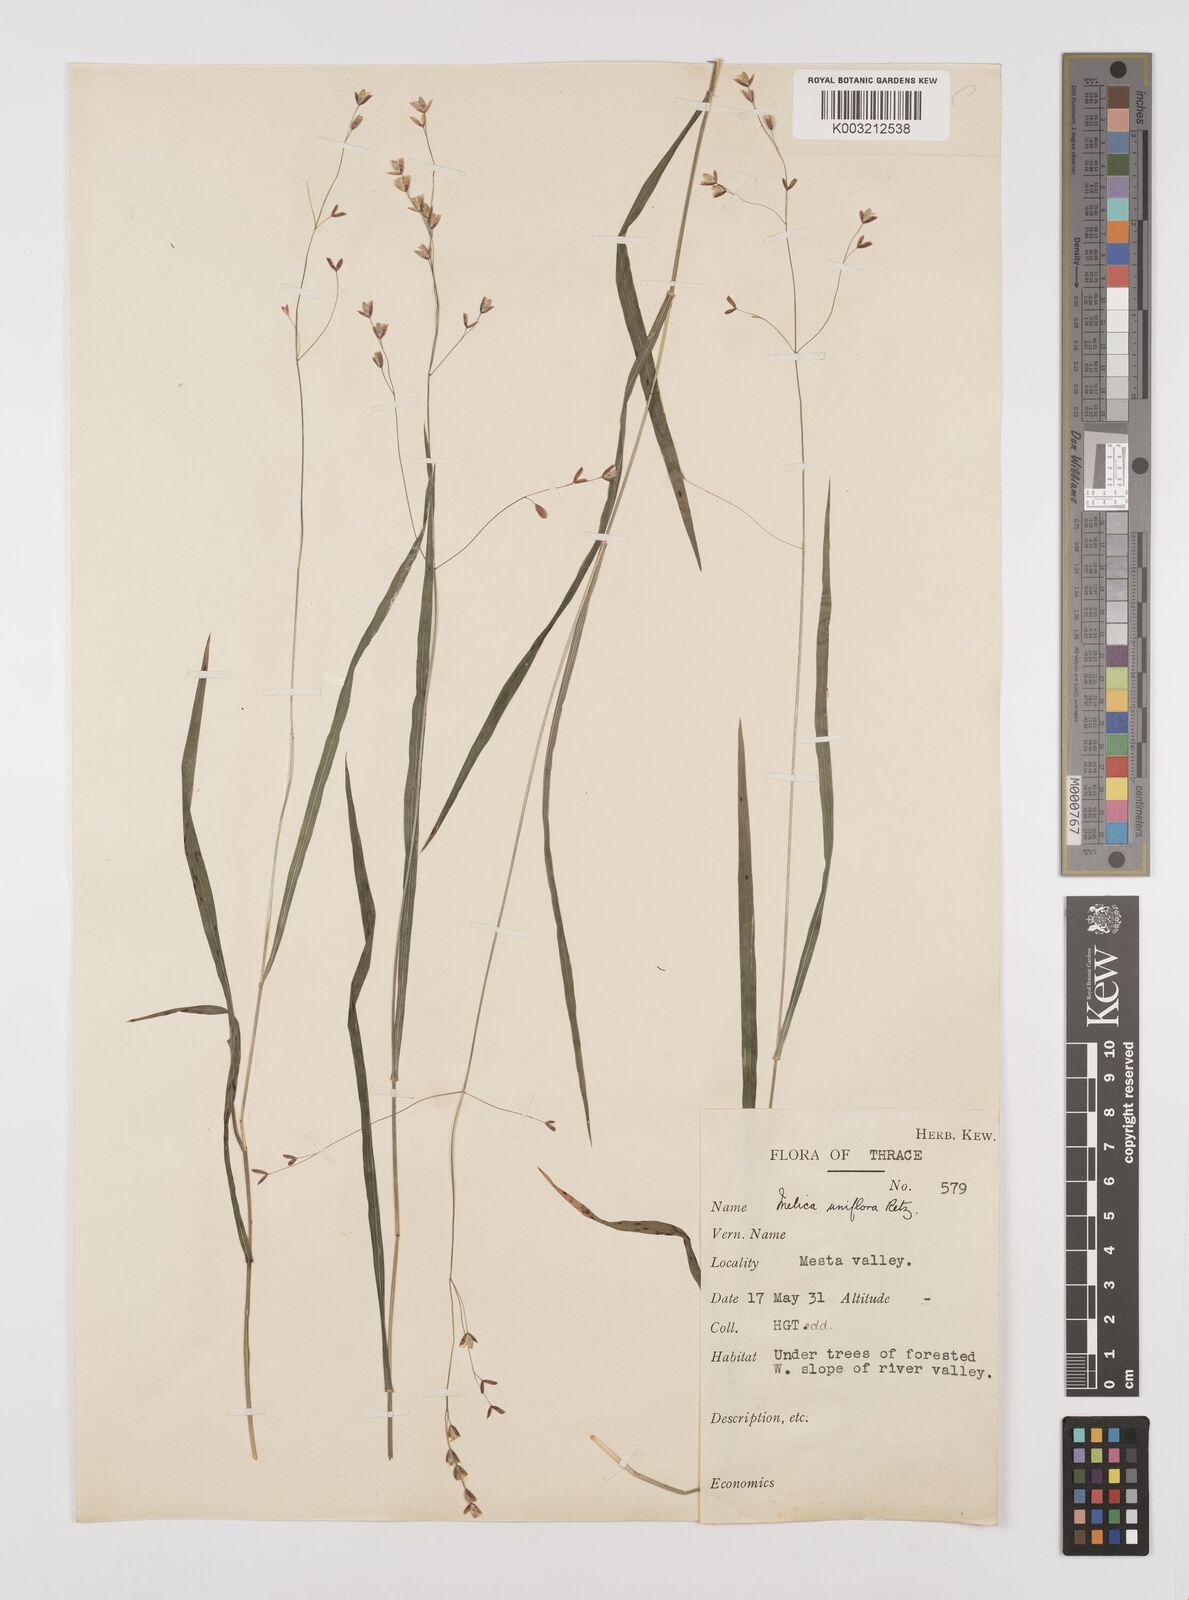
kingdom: Plantae
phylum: Tracheophyta
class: Liliopsida
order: Poales
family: Poaceae
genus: Melica
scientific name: Melica uniflora
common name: Wood melick
